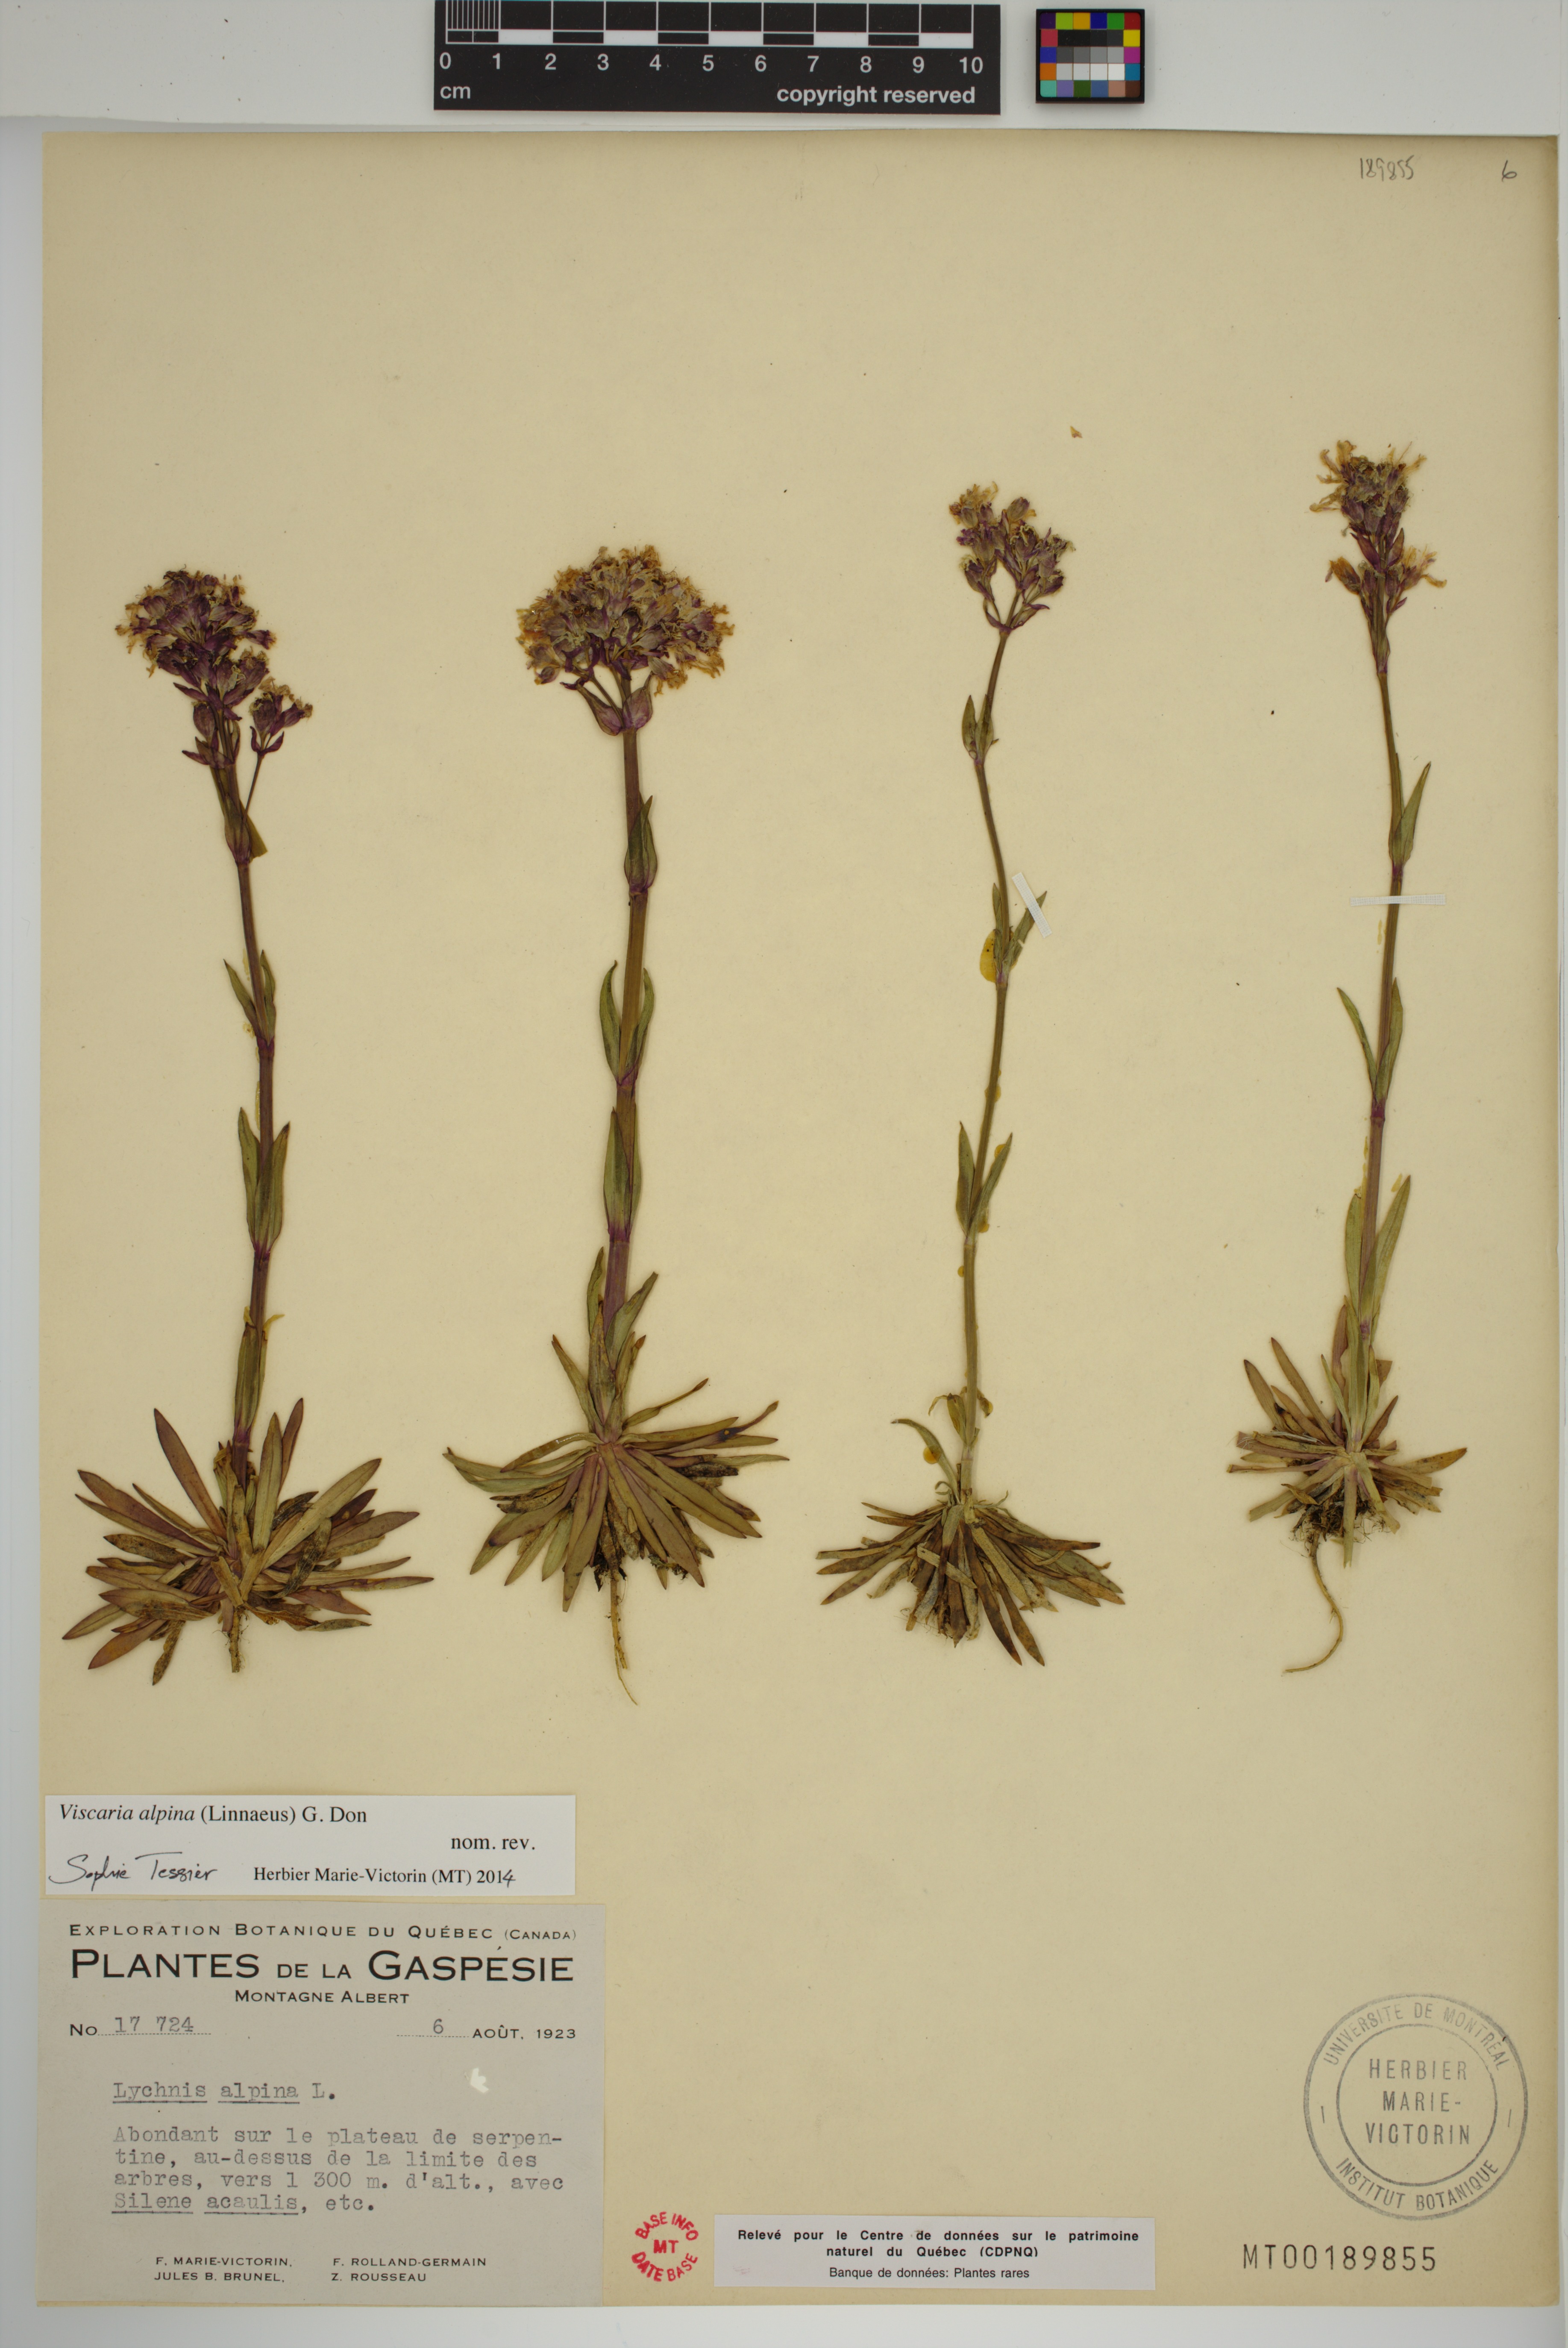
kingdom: Plantae
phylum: Tracheophyta
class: Magnoliopsida
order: Caryophyllales
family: Caryophyllaceae
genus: Viscaria
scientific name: Viscaria alpina
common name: Alpine campion
